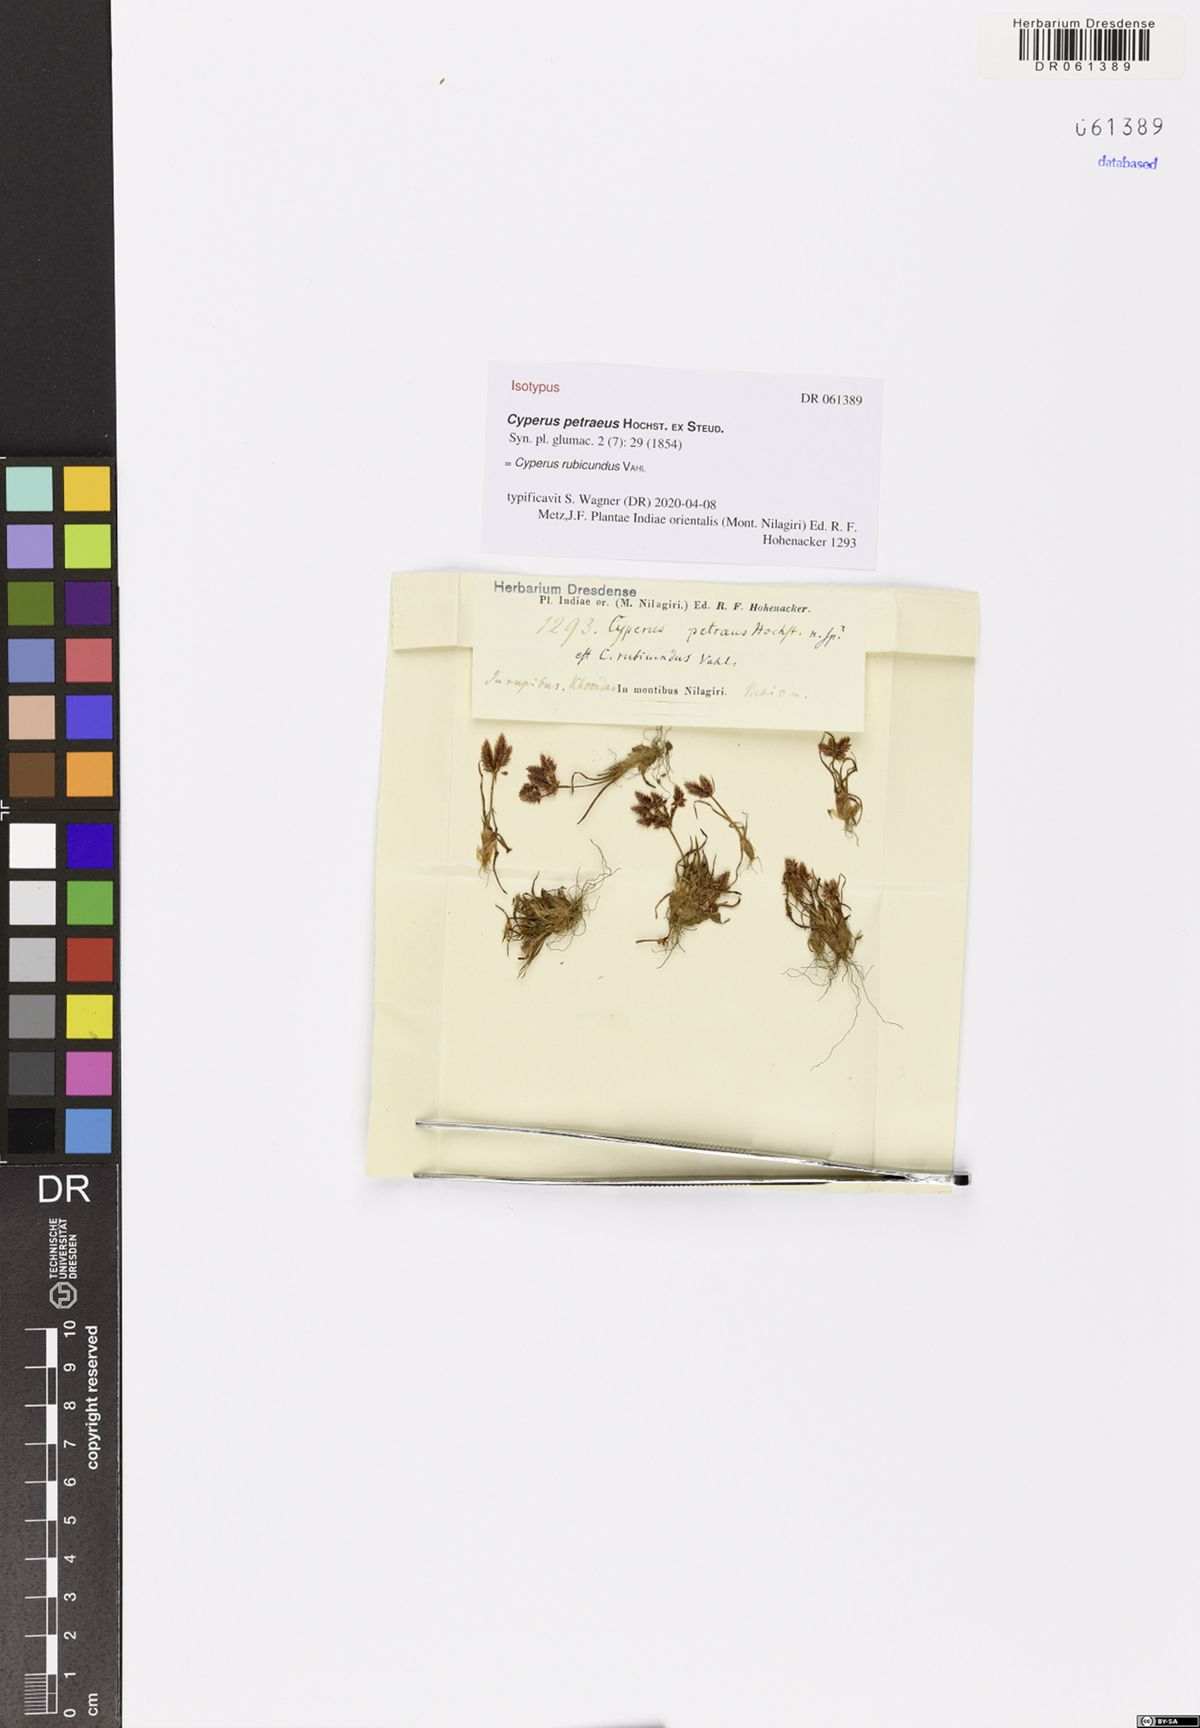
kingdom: Plantae
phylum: Tracheophyta
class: Liliopsida
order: Poales
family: Cyperaceae
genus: Cyperus
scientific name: Cyperus rubicundus
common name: Coco-grass
